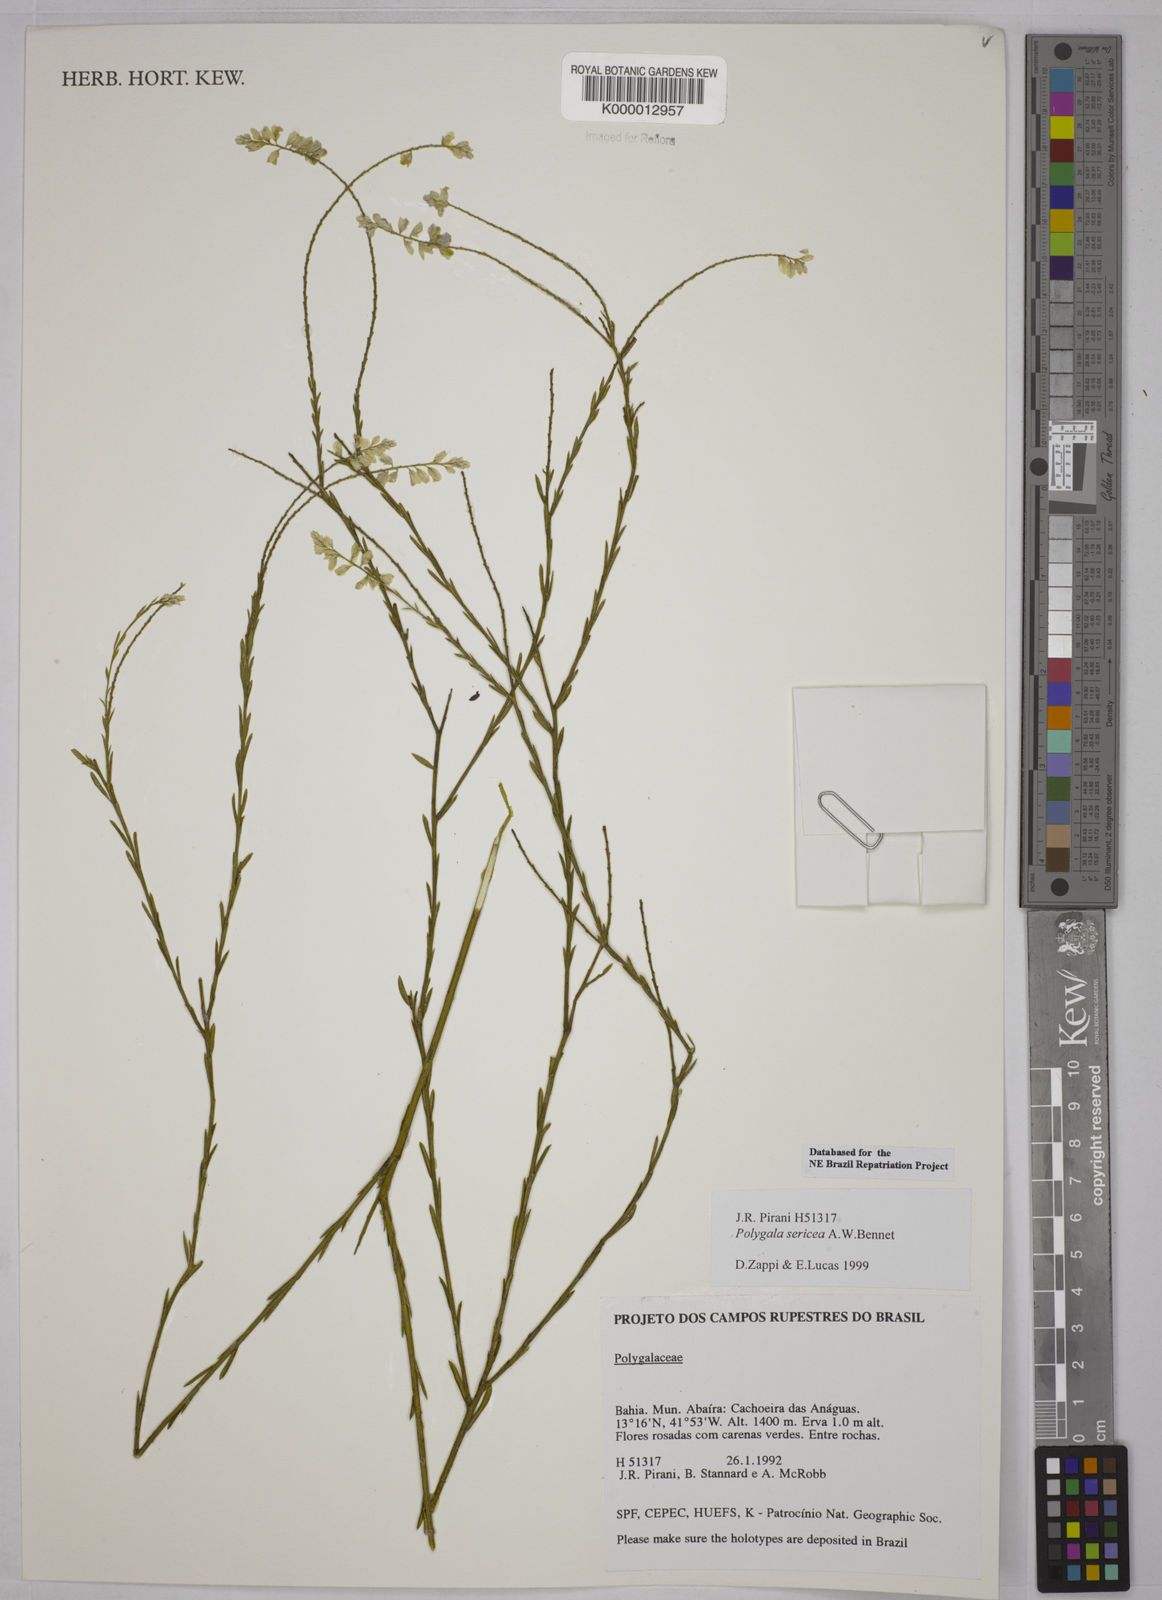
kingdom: Plantae
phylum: Tracheophyta
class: Magnoliopsida
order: Fabales
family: Polygalaceae
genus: Polygala
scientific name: Polygala sericea
